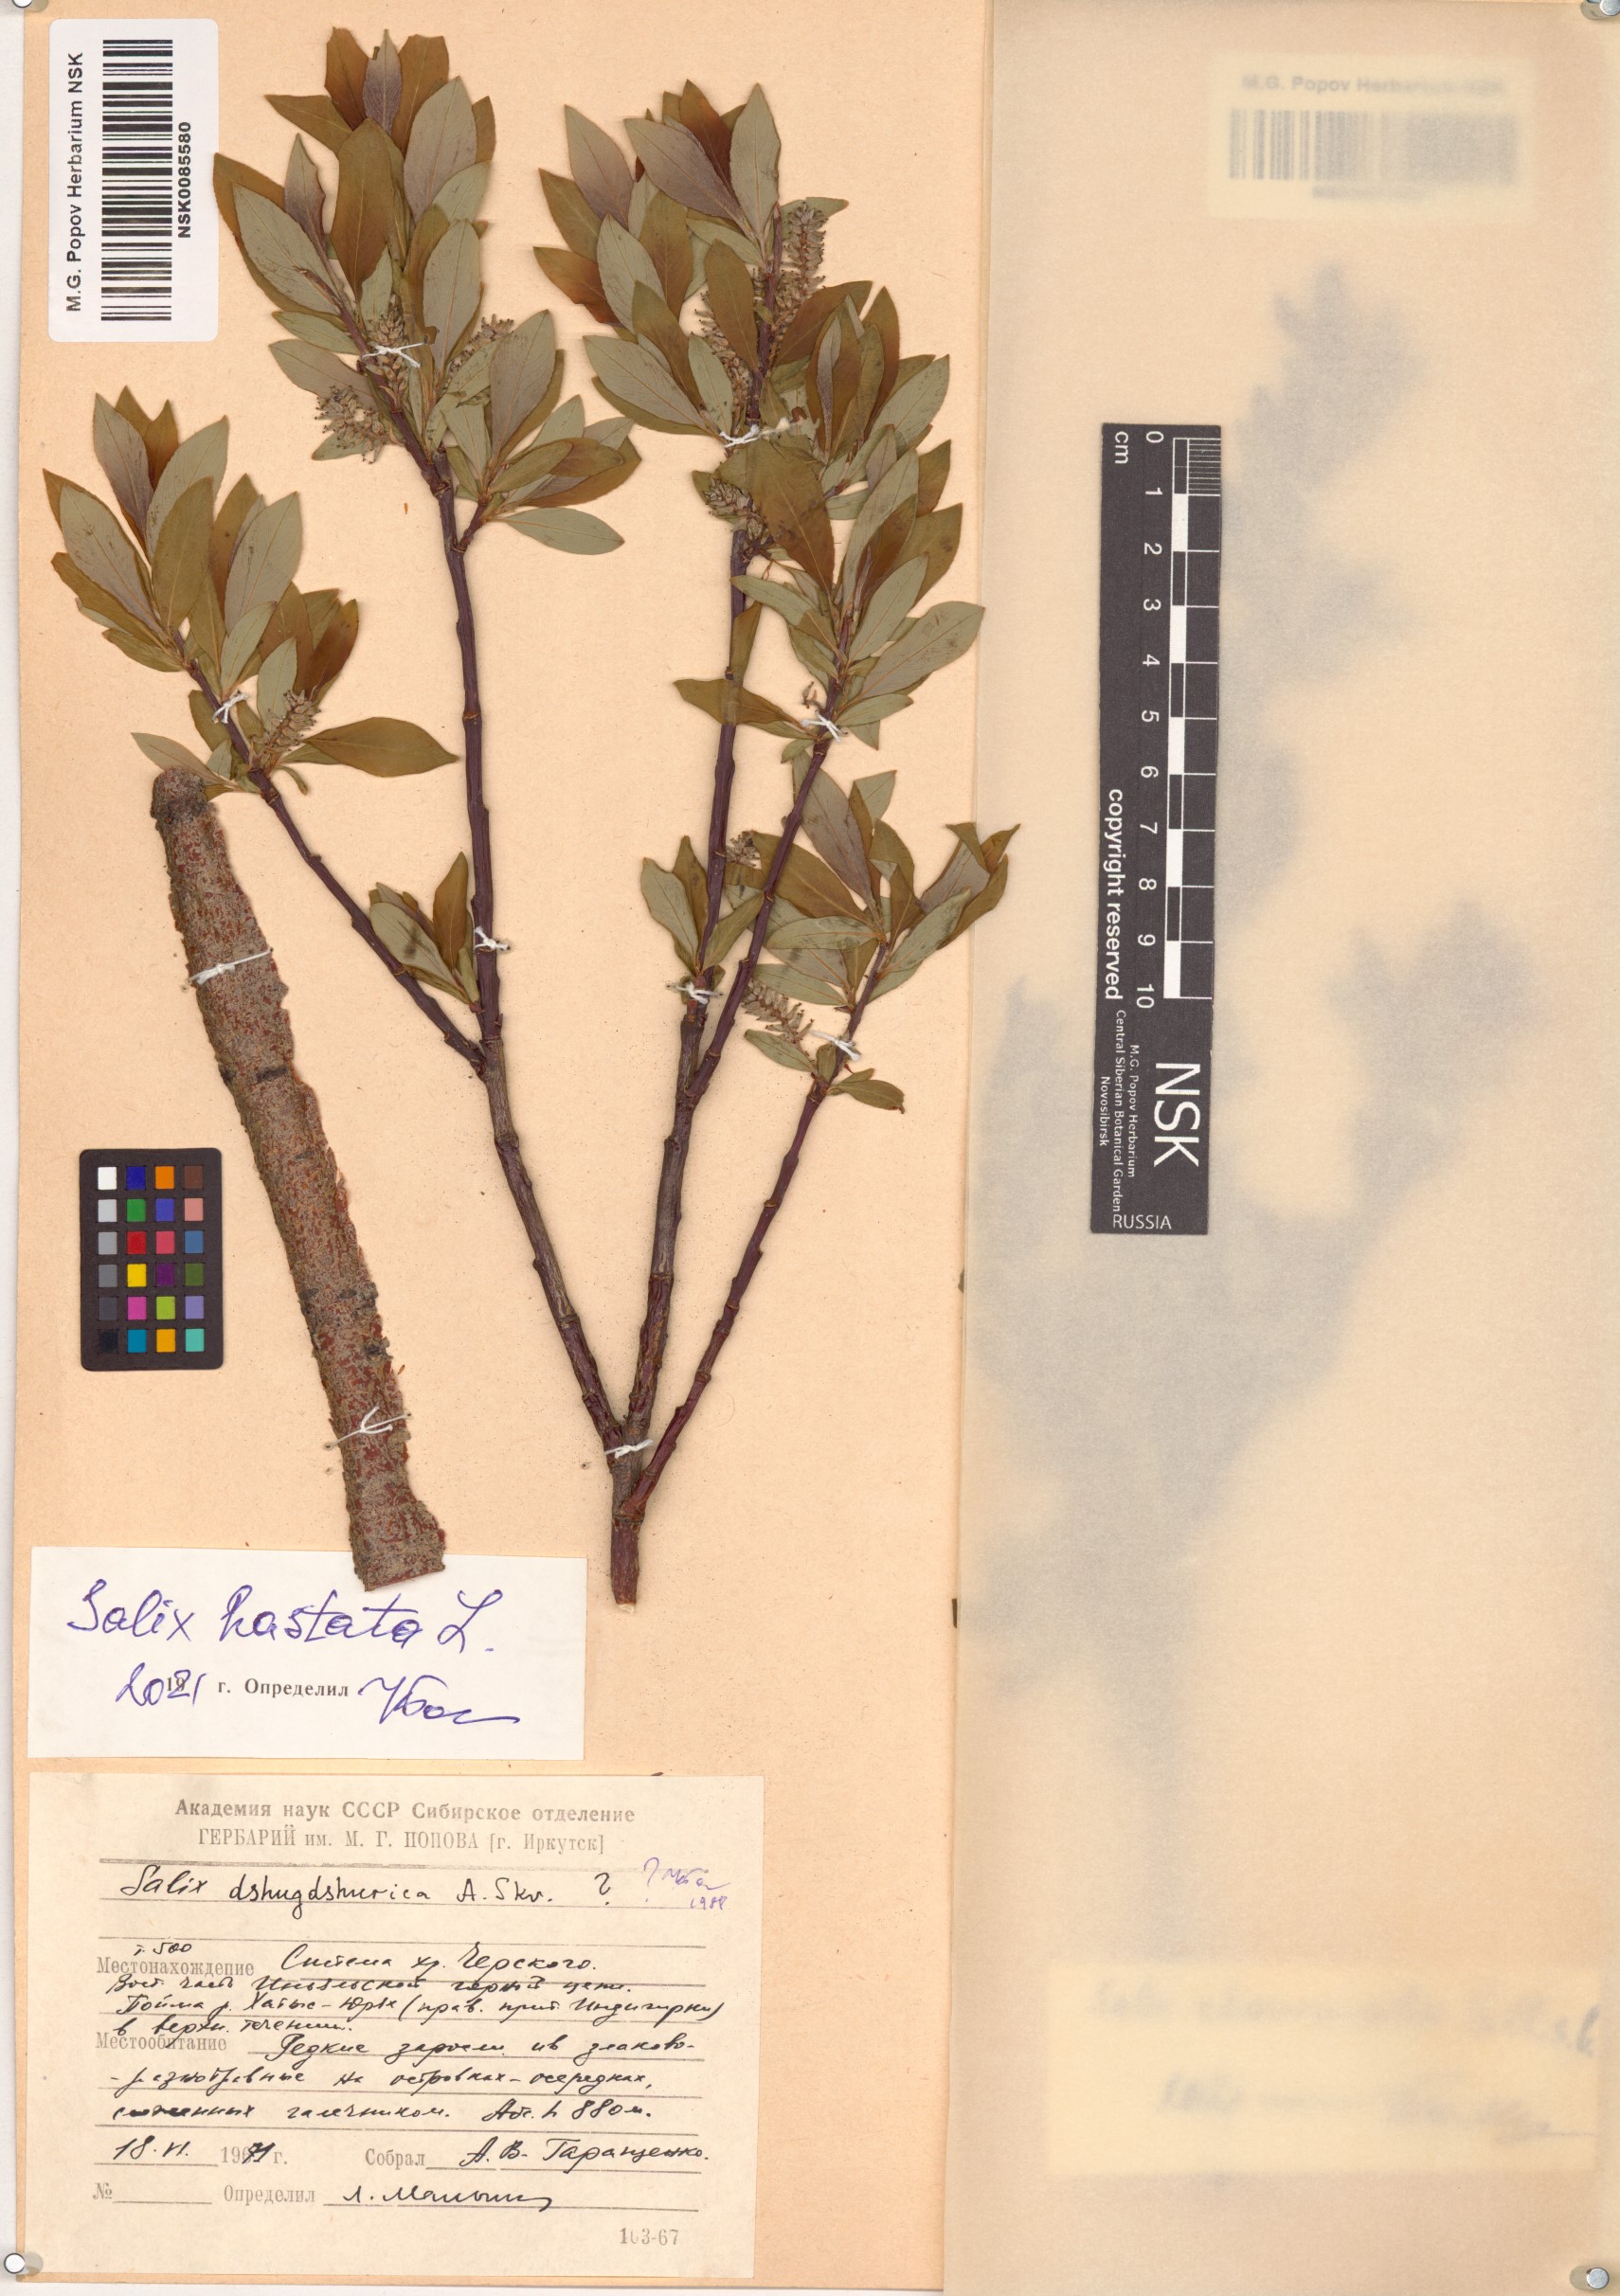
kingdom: Plantae
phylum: Tracheophyta
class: Magnoliopsida
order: Malpighiales
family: Salicaceae
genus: Salix
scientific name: Salix hastata
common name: Halberd willow
